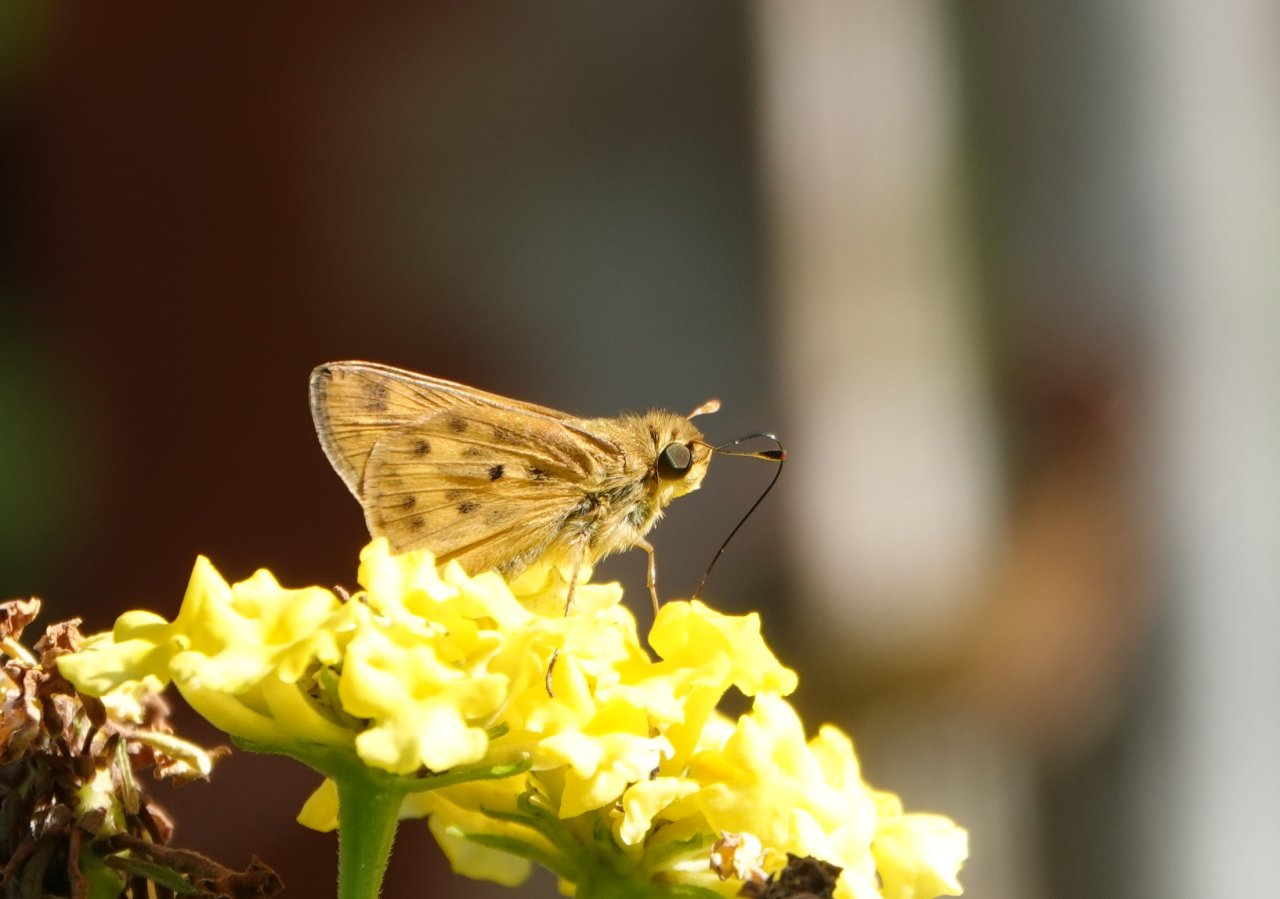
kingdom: Animalia
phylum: Arthropoda
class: Insecta
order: Lepidoptera
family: Hesperiidae
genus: Hylephila
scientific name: Hylephila phyleus
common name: Fiery Skipper
